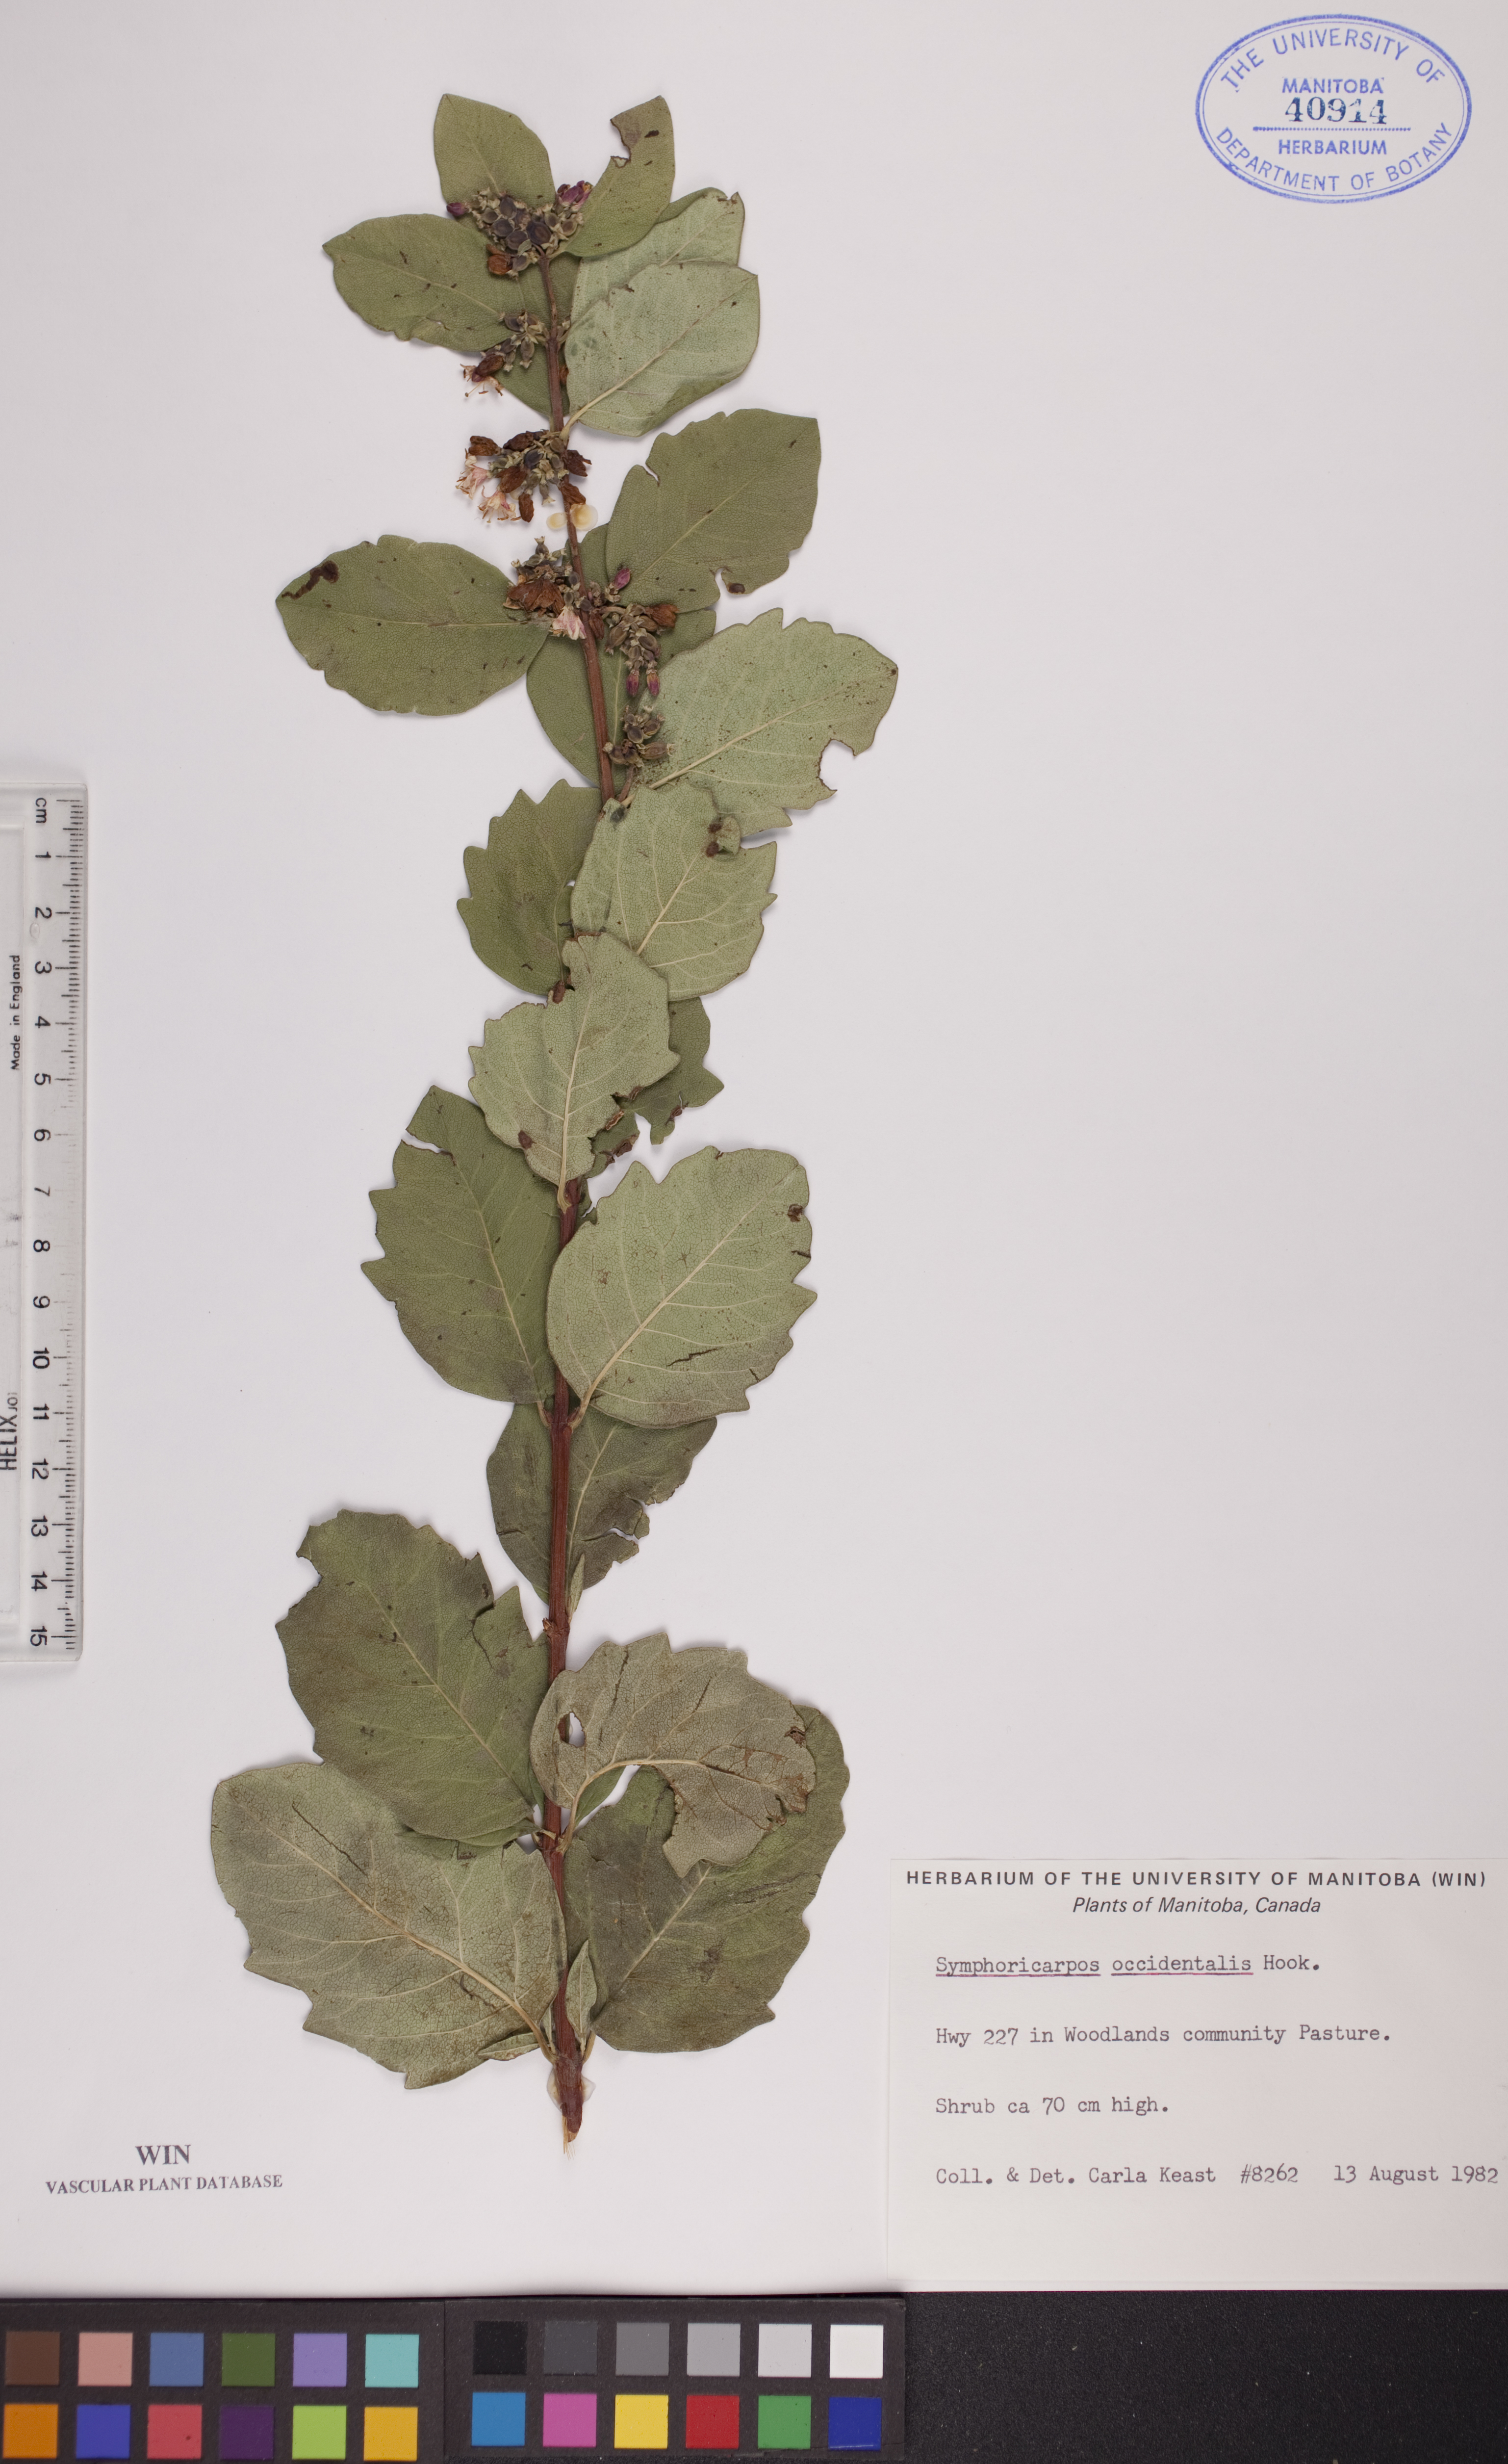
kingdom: Plantae
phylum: Tracheophyta
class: Magnoliopsida
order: Dipsacales
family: Caprifoliaceae
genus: Symphoricarpos
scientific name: Symphoricarpos occidentalis
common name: Wolfberry
